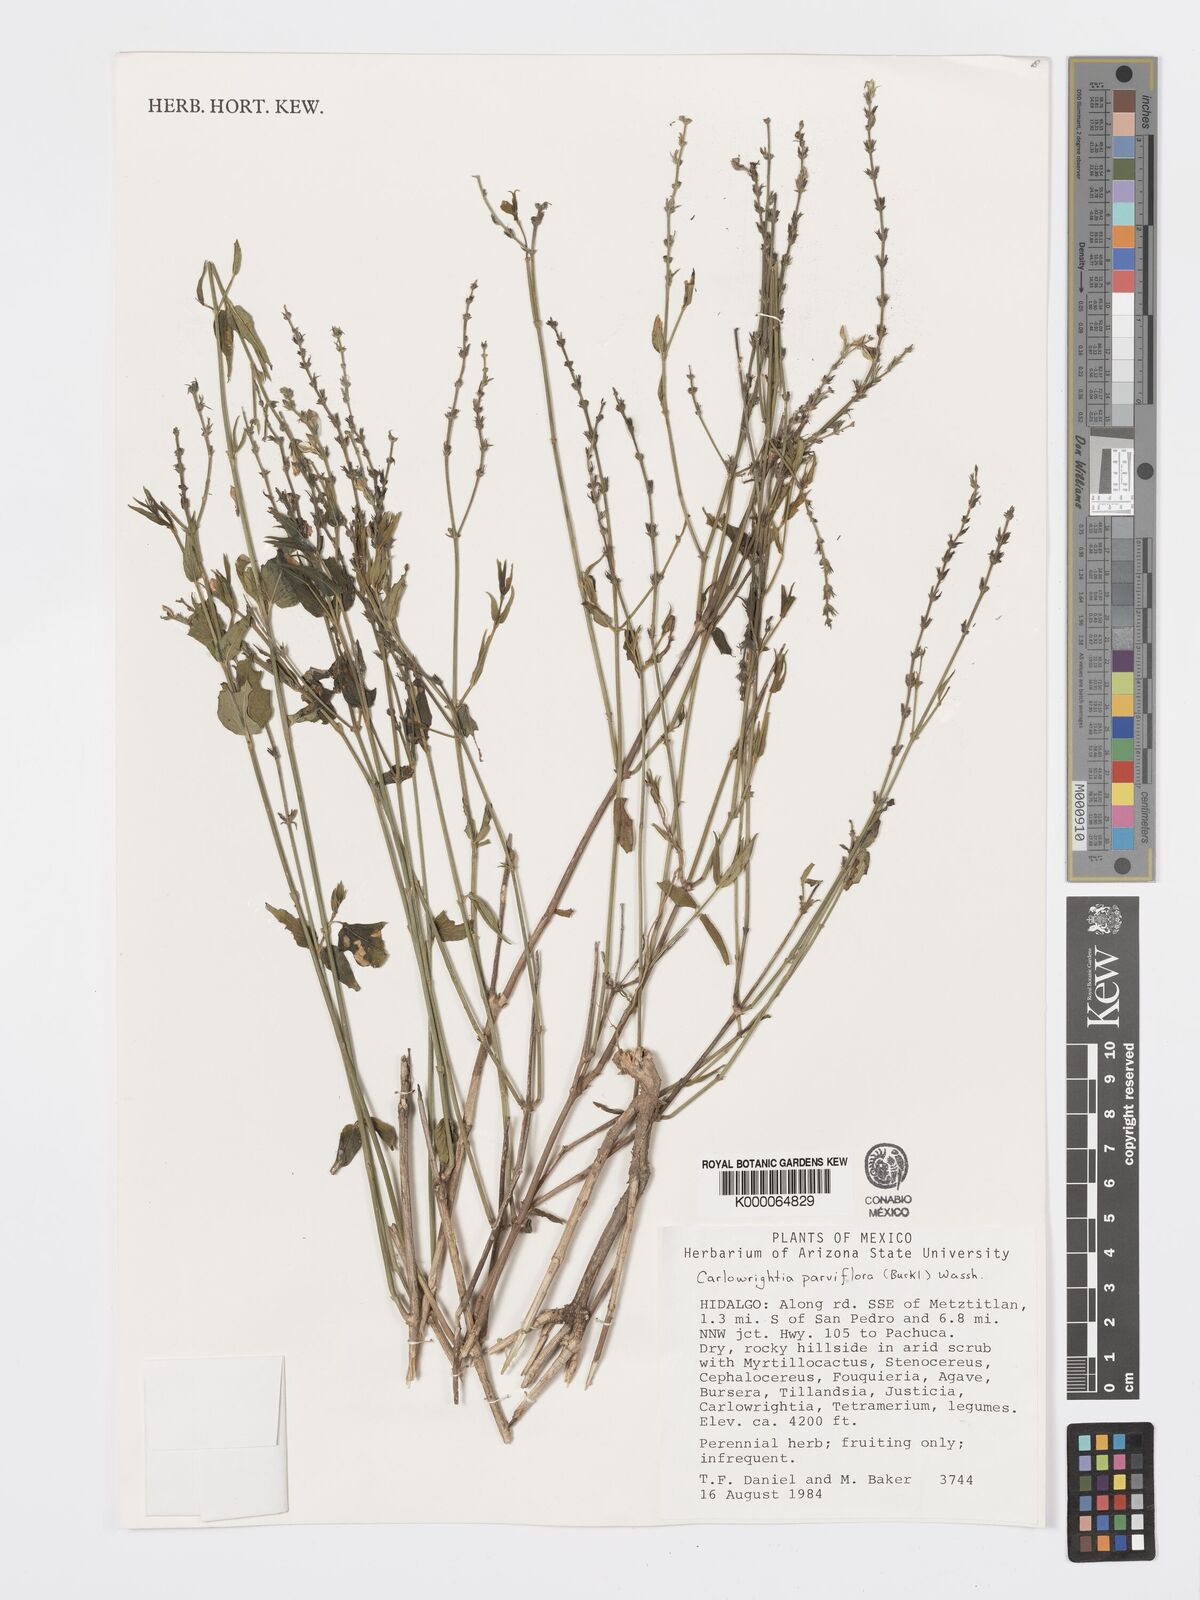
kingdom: Plantae
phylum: Tracheophyta
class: Magnoliopsida
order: Lamiales
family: Acanthaceae
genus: Carlowrightia
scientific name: Carlowrightia parviflora
